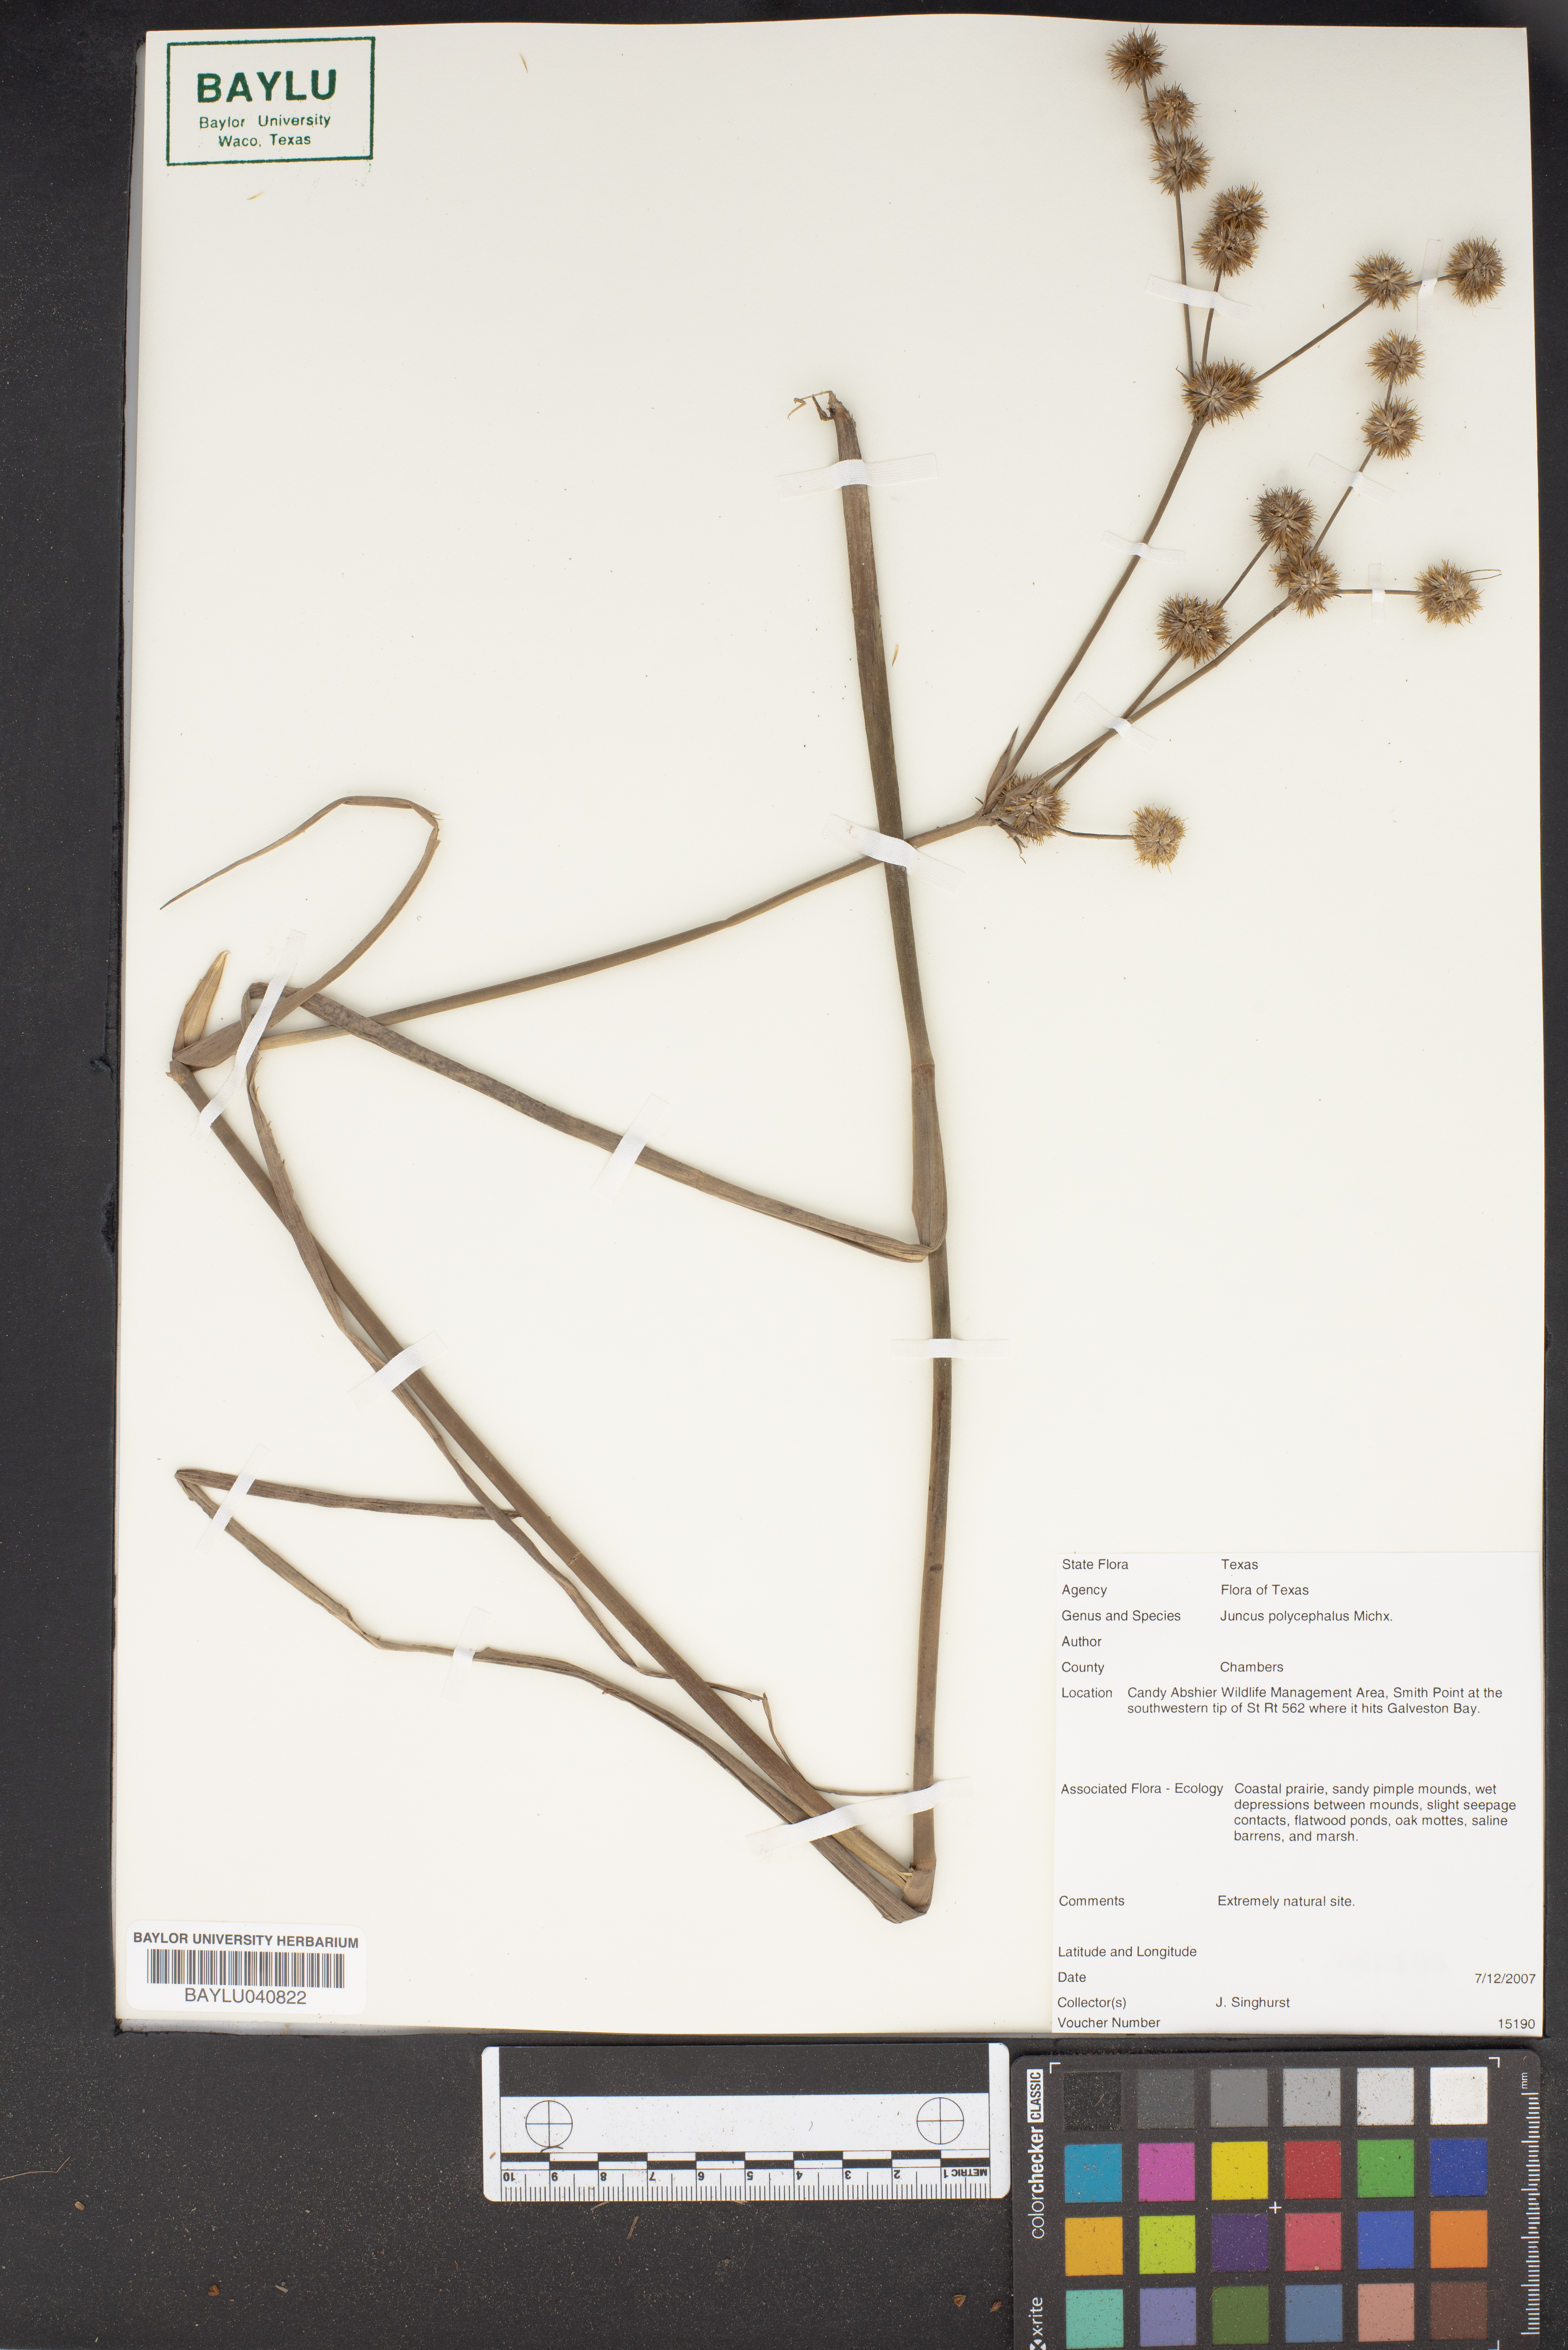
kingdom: Plantae
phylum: Tracheophyta
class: Liliopsida
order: Poales
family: Juncaceae
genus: Juncus
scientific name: Juncus polycephalus
